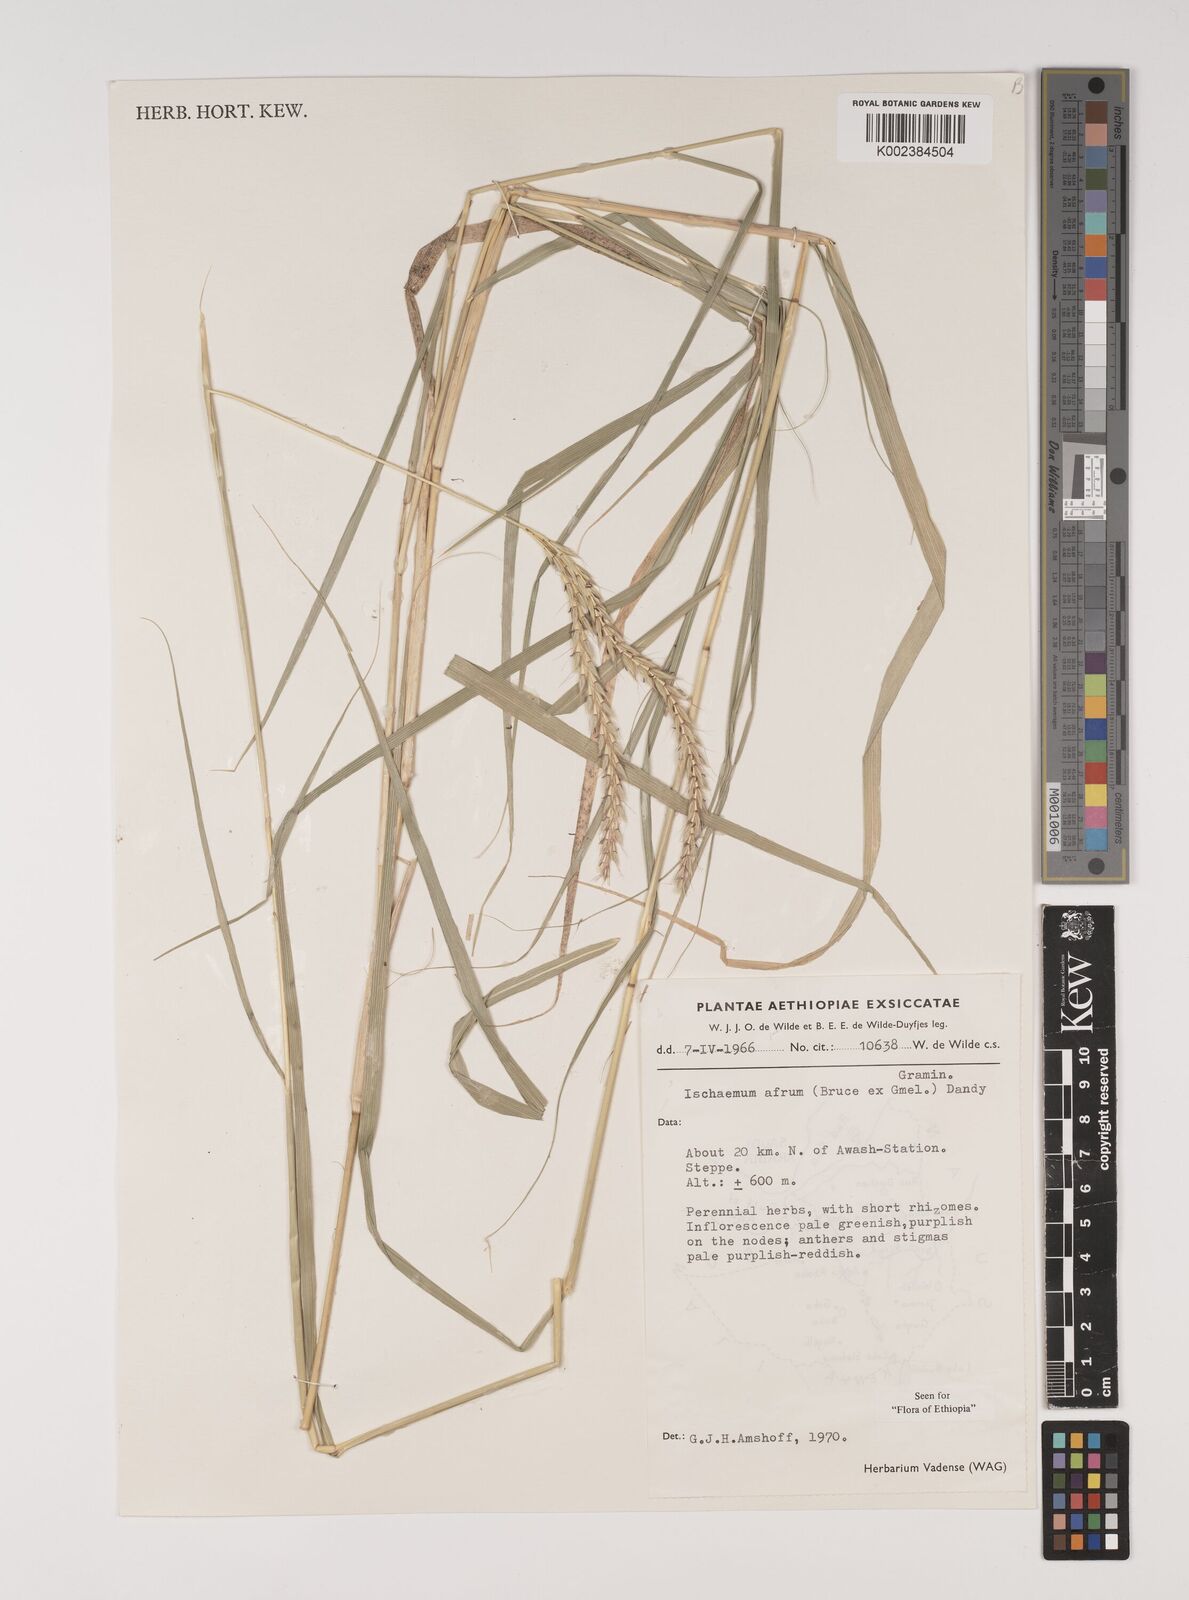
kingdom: Plantae
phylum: Tracheophyta
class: Liliopsida
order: Poales
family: Poaceae
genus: Ischaemum
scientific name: Ischaemum afrum
